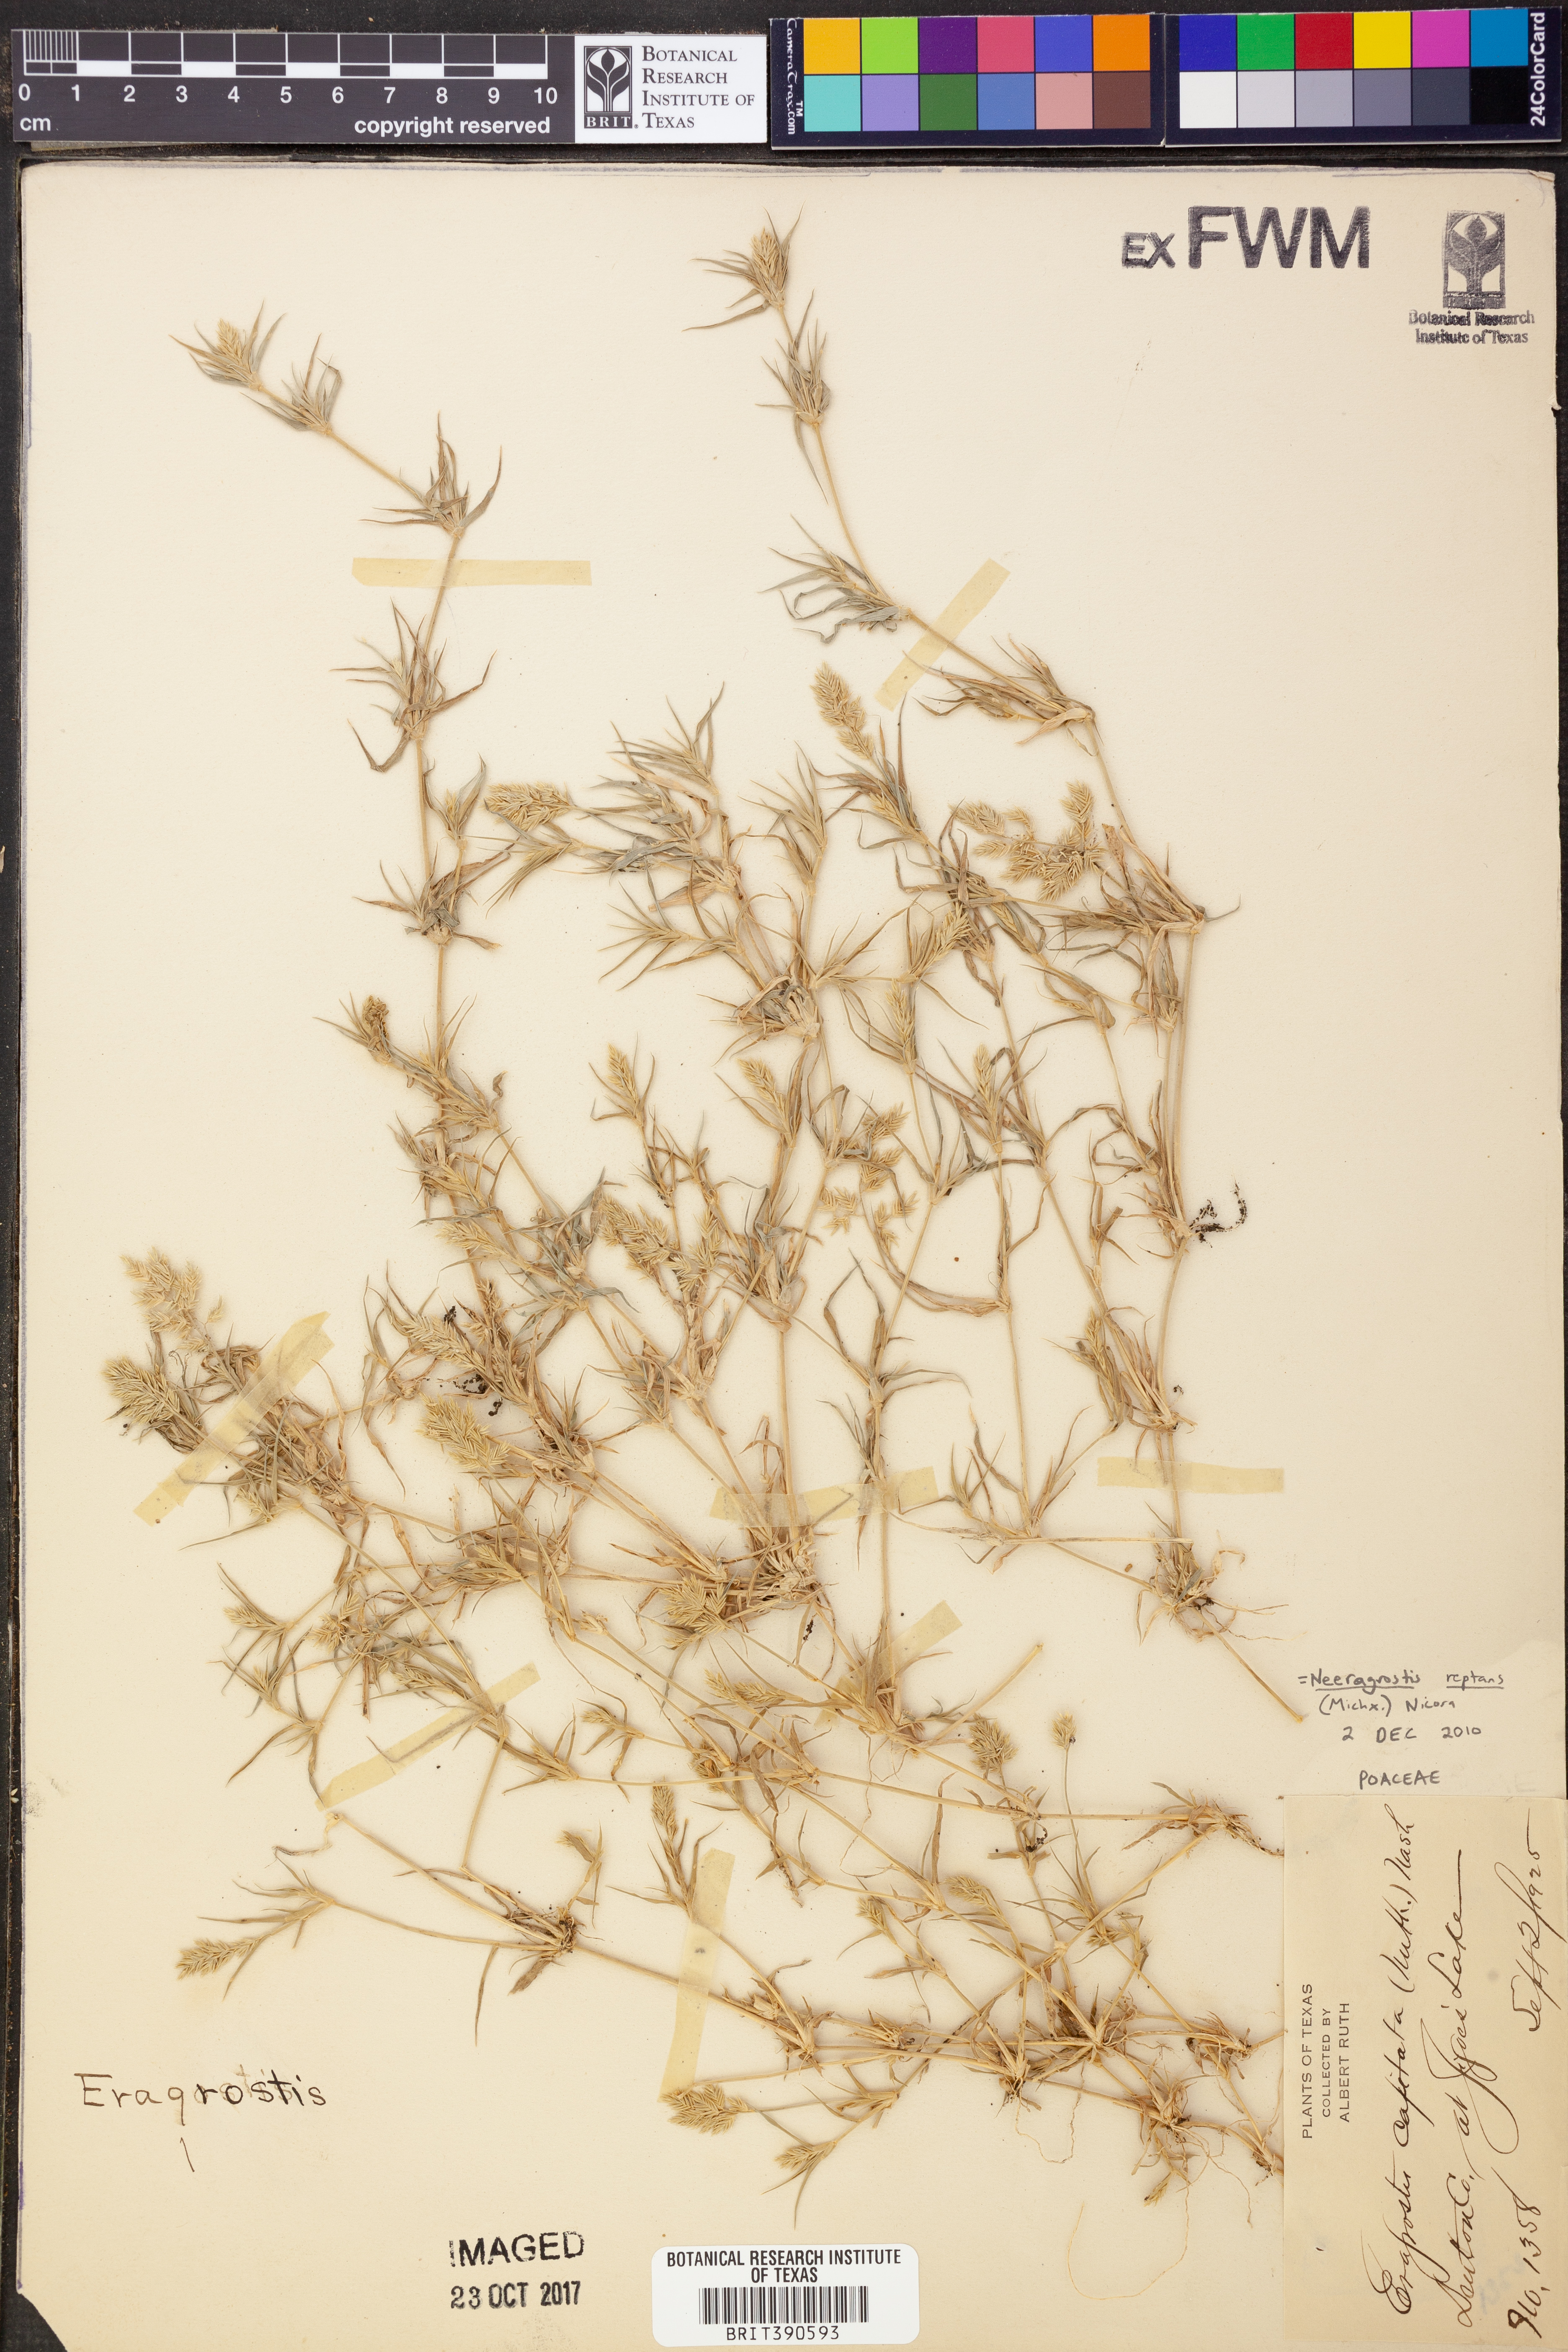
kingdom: Plantae
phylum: Tracheophyta
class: Liliopsida
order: Poales
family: Poaceae
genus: Eragrostis
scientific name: Eragrostis reptans
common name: Creeping love grass
